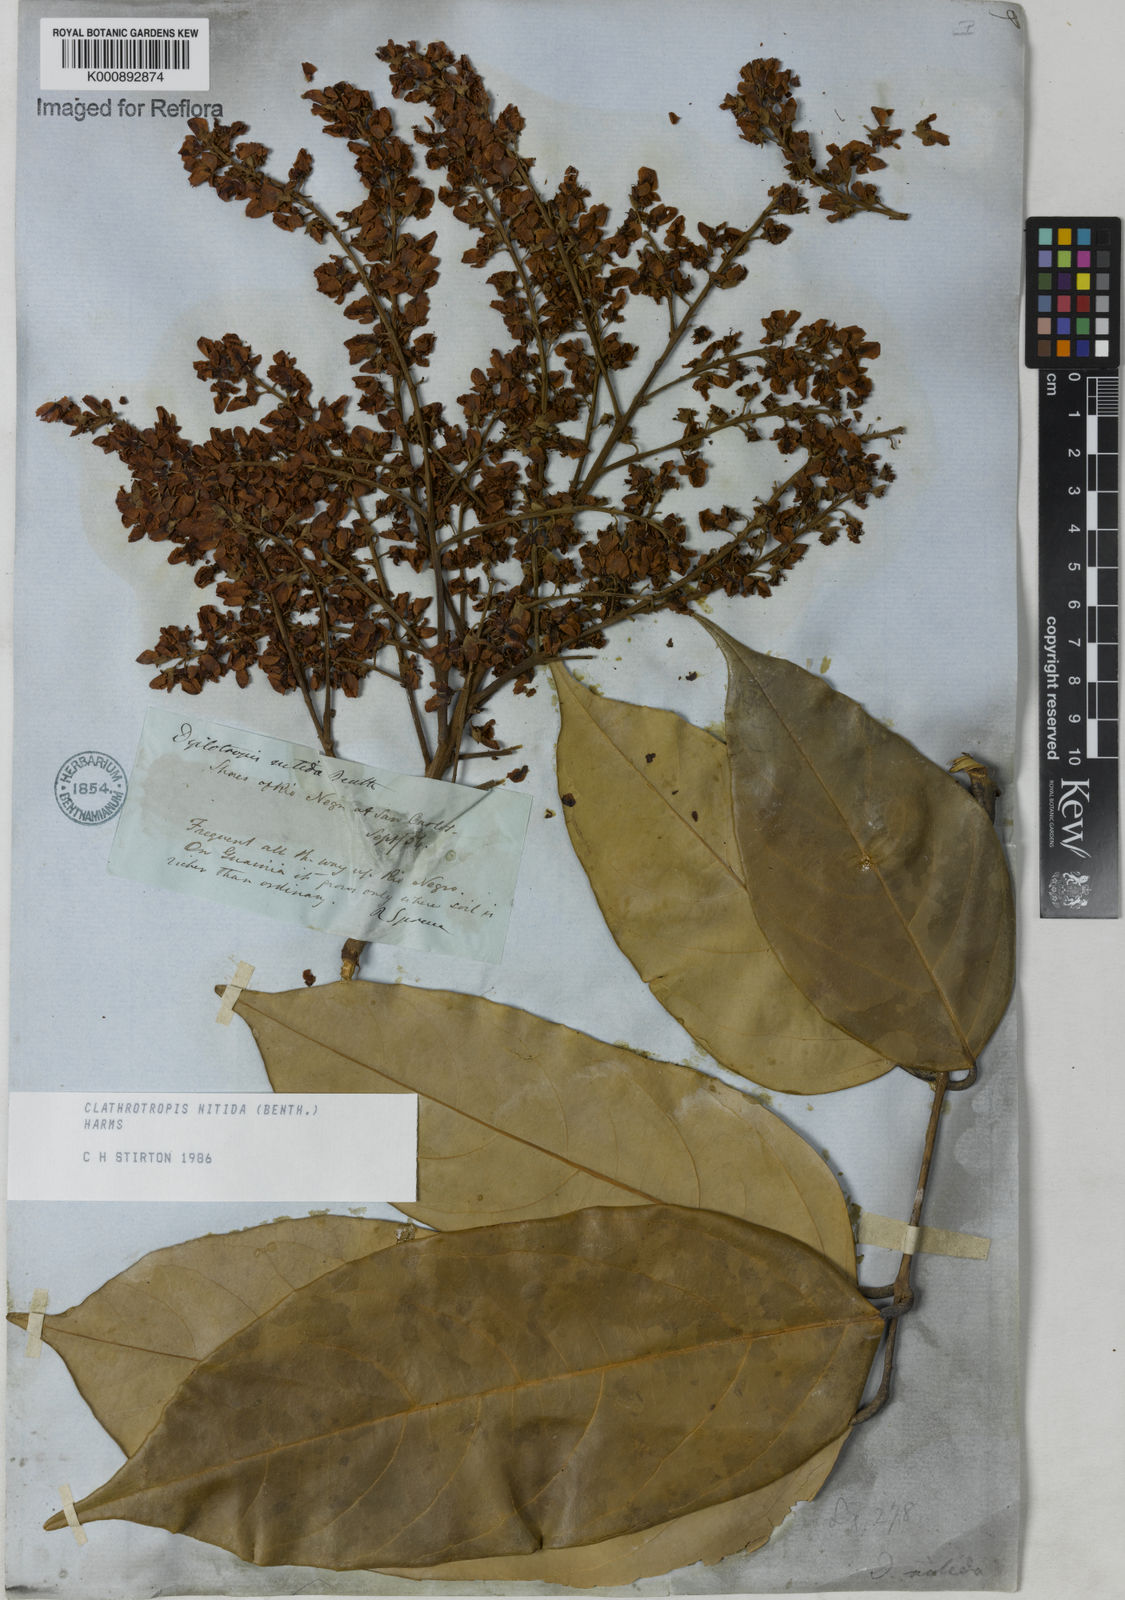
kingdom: Plantae
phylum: Tracheophyta
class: Magnoliopsida
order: Fabales
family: Fabaceae
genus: Clathrotropis
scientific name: Clathrotropis nitida
